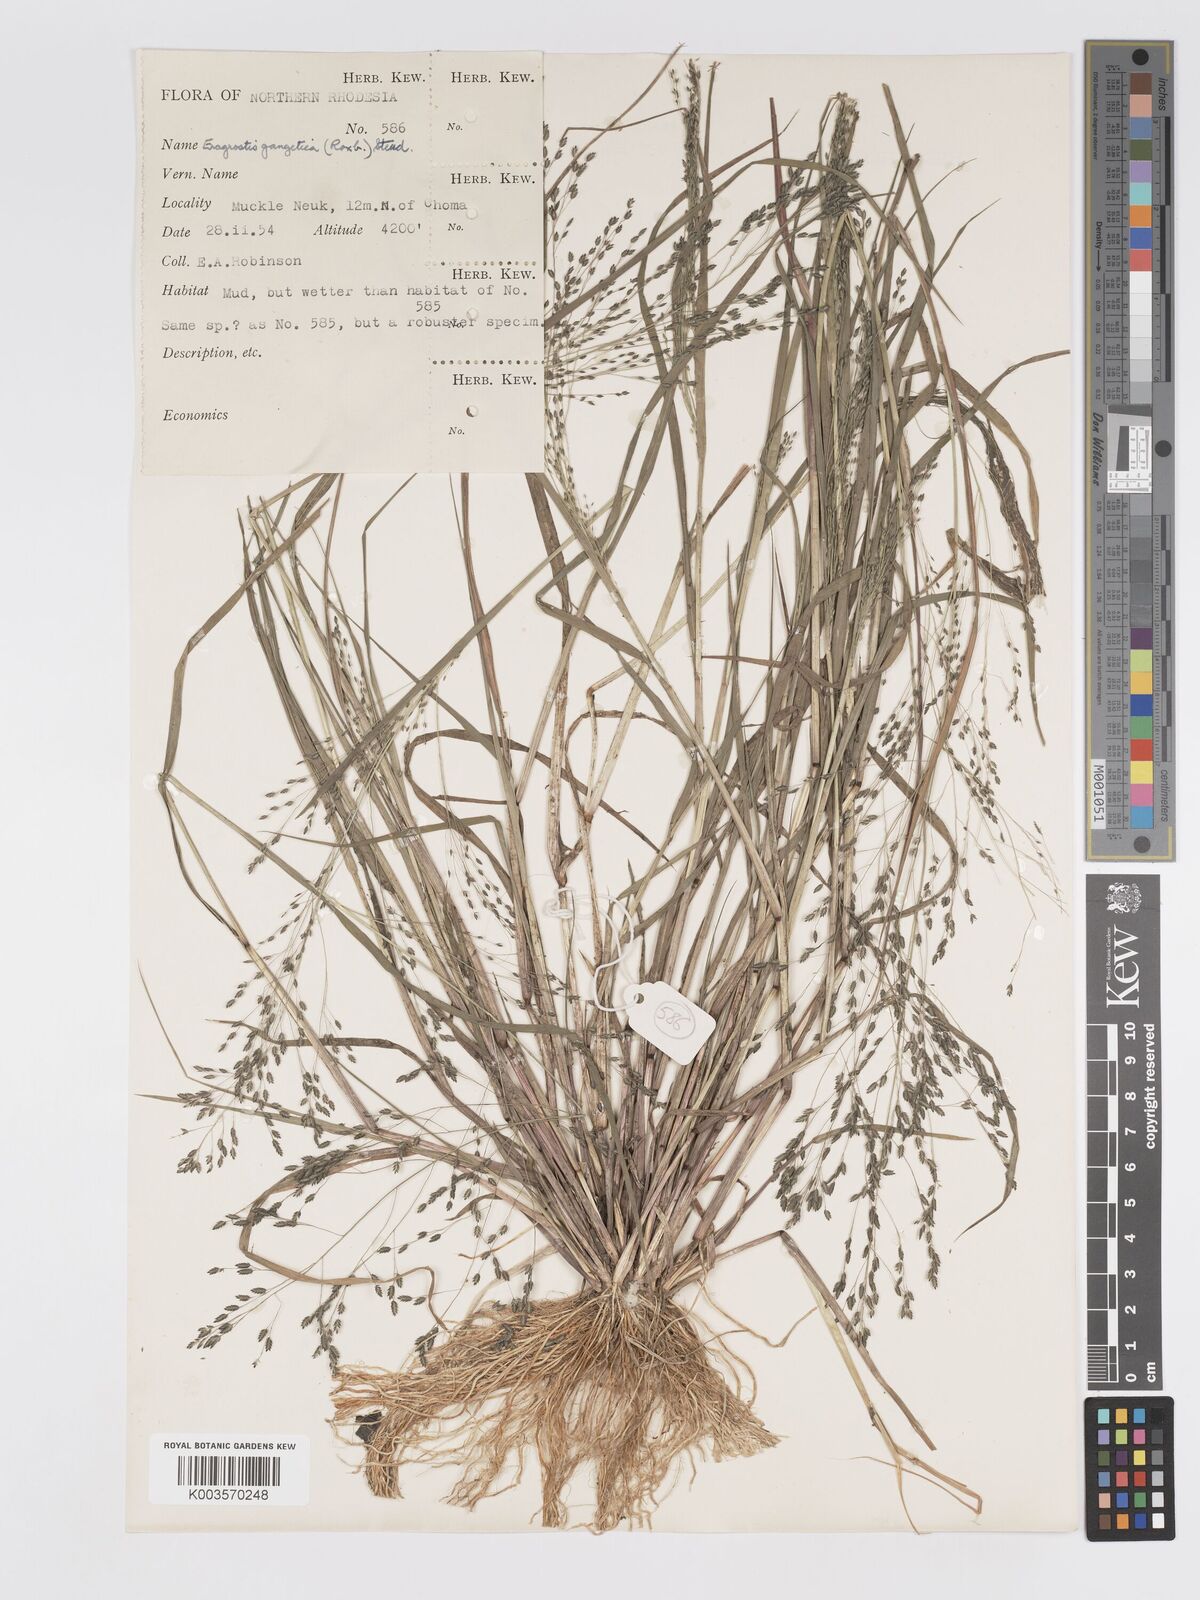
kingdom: Plantae
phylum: Tracheophyta
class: Liliopsida
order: Poales
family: Poaceae
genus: Eragrostis
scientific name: Eragrostis gangetica
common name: Slimflower lovegrass
